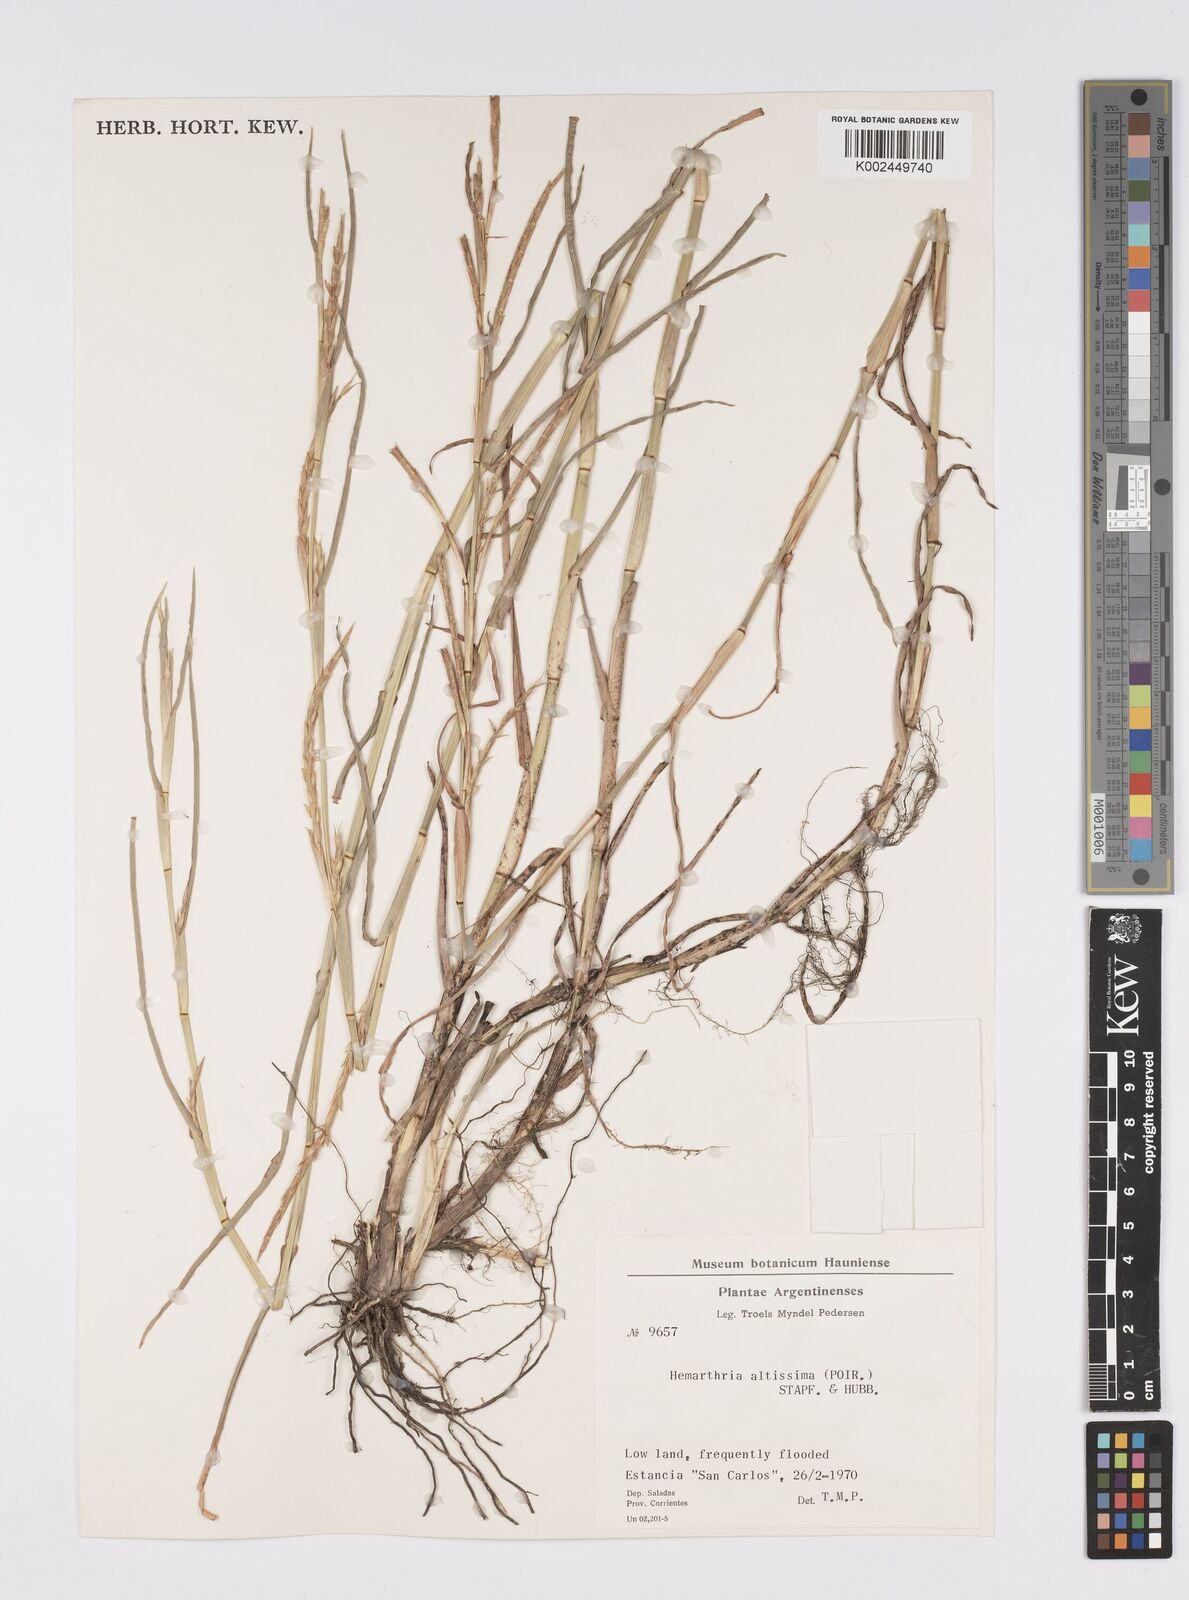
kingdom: Plantae
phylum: Tracheophyta
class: Liliopsida
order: Poales
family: Poaceae
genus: Hemarthria
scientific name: Hemarthria altissima
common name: African jointgrass
